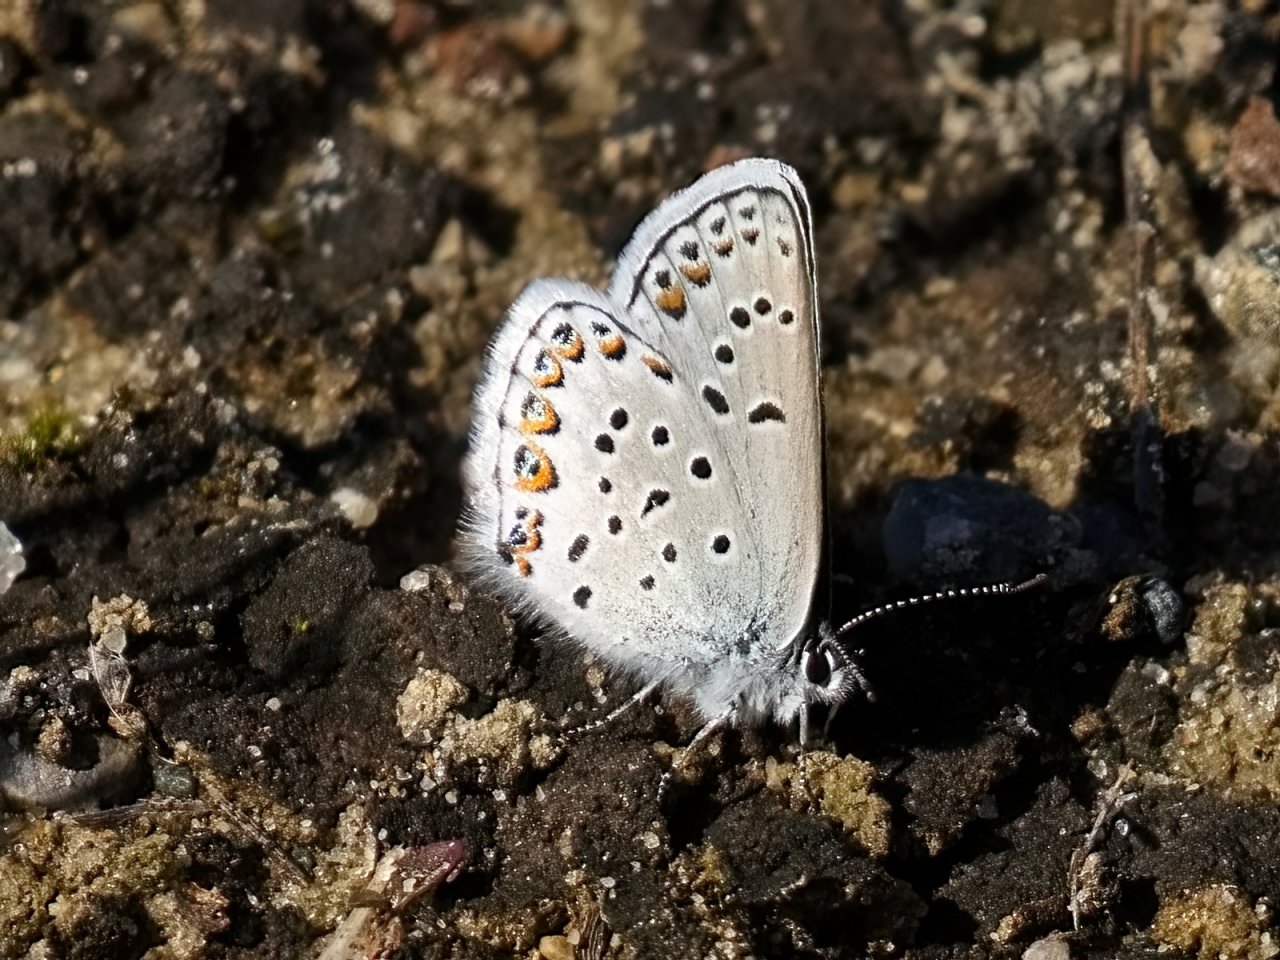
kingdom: Animalia
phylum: Arthropoda
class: Insecta
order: Lepidoptera
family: Lycaenidae
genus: Lycaeides
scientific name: Lycaeides idas
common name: Northern Blue
